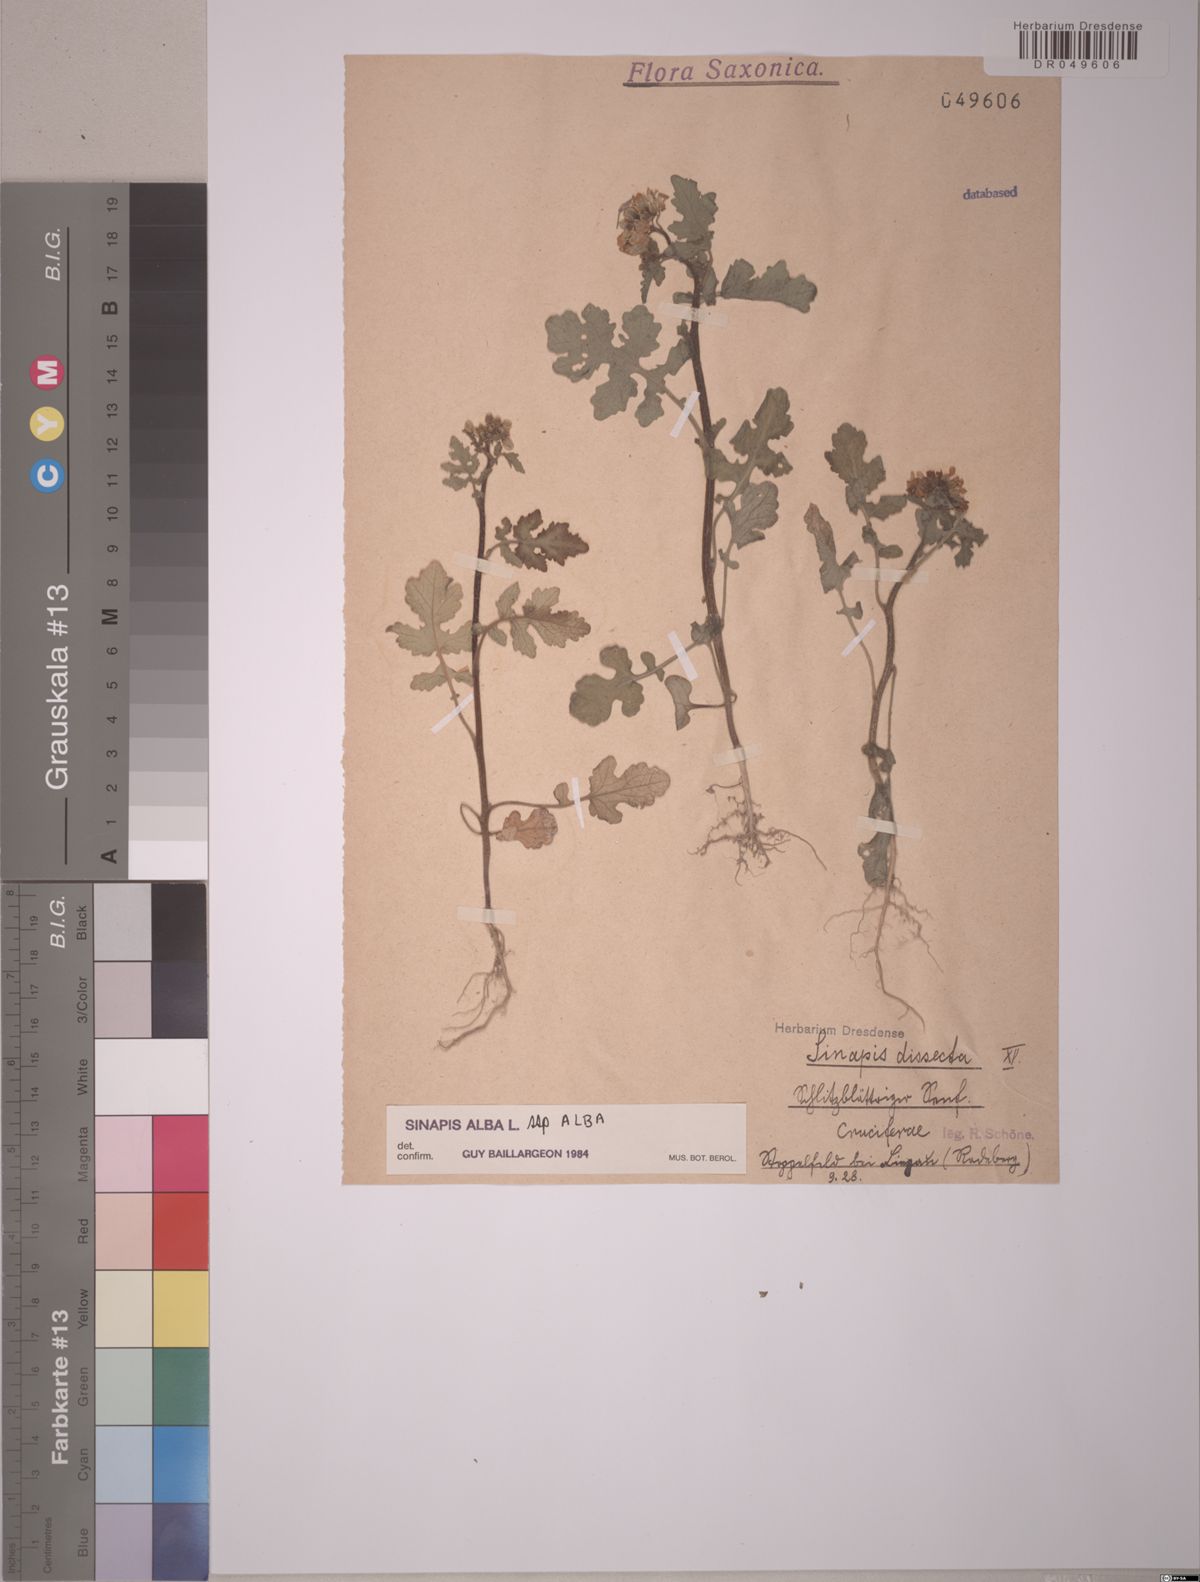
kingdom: Plantae
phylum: Tracheophyta
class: Magnoliopsida
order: Brassicales
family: Brassicaceae
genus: Sinapis
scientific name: Sinapis alba
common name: White mustard
